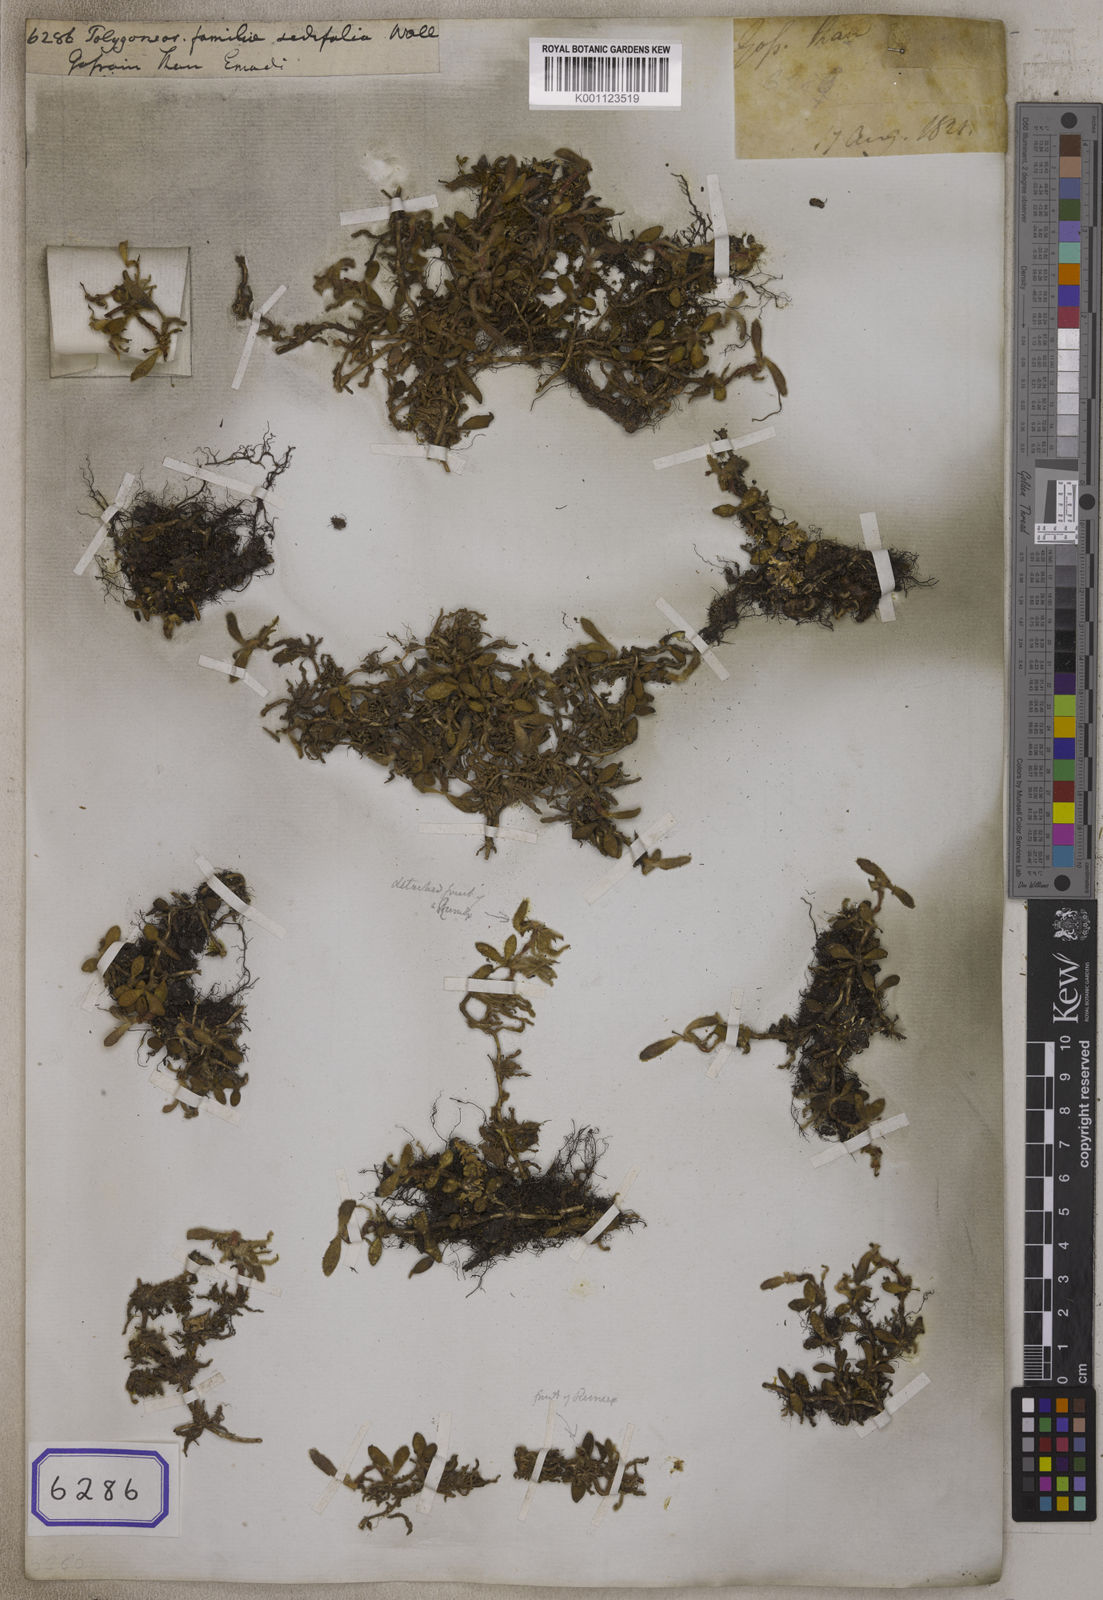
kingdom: Plantae
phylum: Tracheophyta
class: Magnoliopsida
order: Caryophyllales
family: Polygonaceae
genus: Polygonum
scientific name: Polygonum
